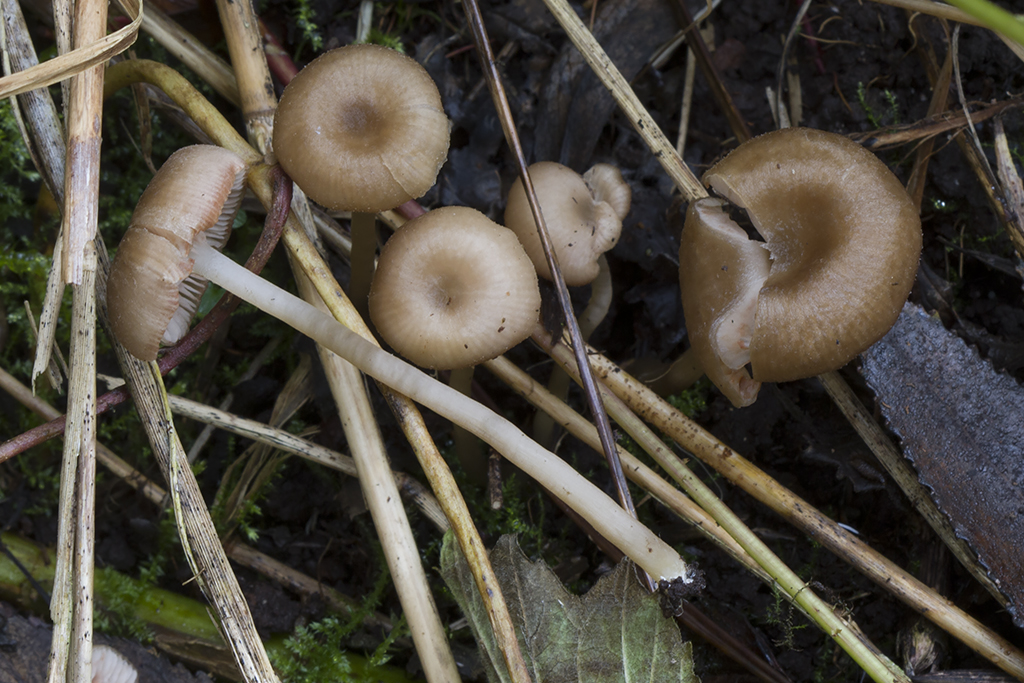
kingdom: Fungi
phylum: Basidiomycota
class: Agaricomycetes
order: Agaricales
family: Entolomataceae
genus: Entoloma
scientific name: Entoloma politum
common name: poleret rødblad
